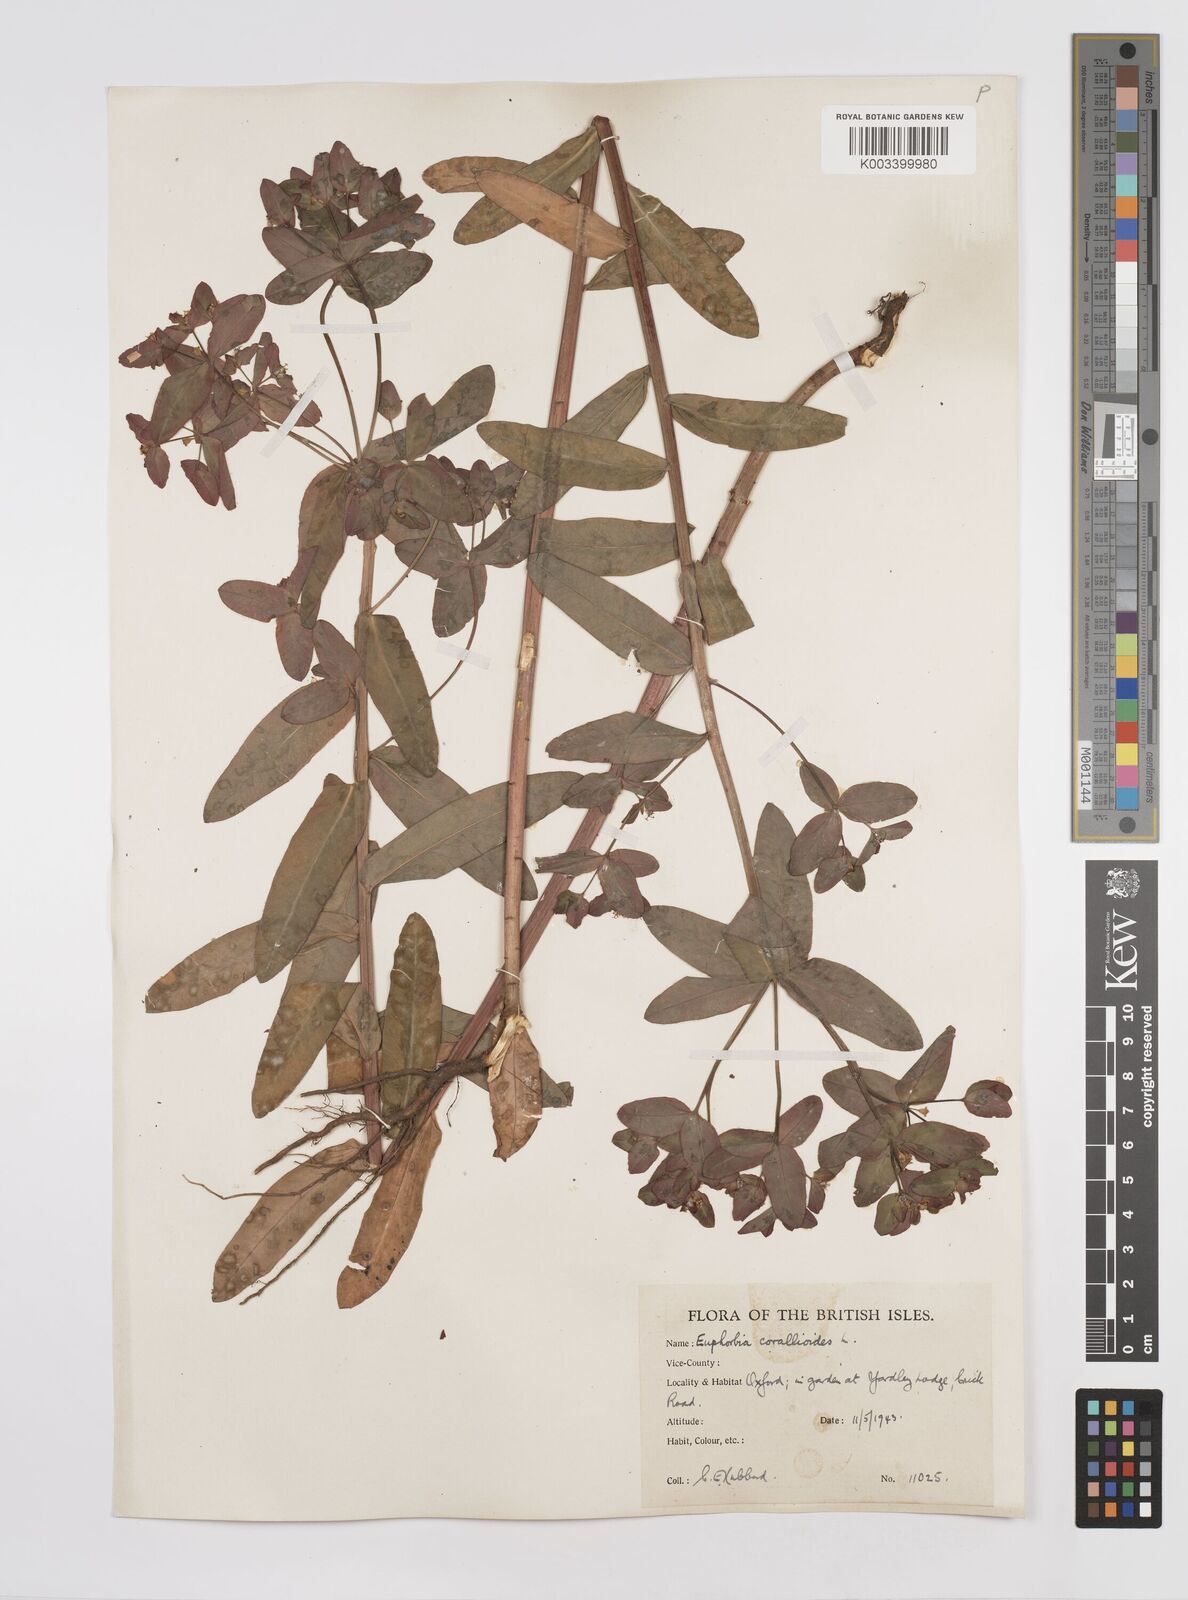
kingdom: Plantae
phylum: Tracheophyta
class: Magnoliopsida
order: Malpighiales
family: Euphorbiaceae
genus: Euphorbia
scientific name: Euphorbia corallioides
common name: Coral spurge
